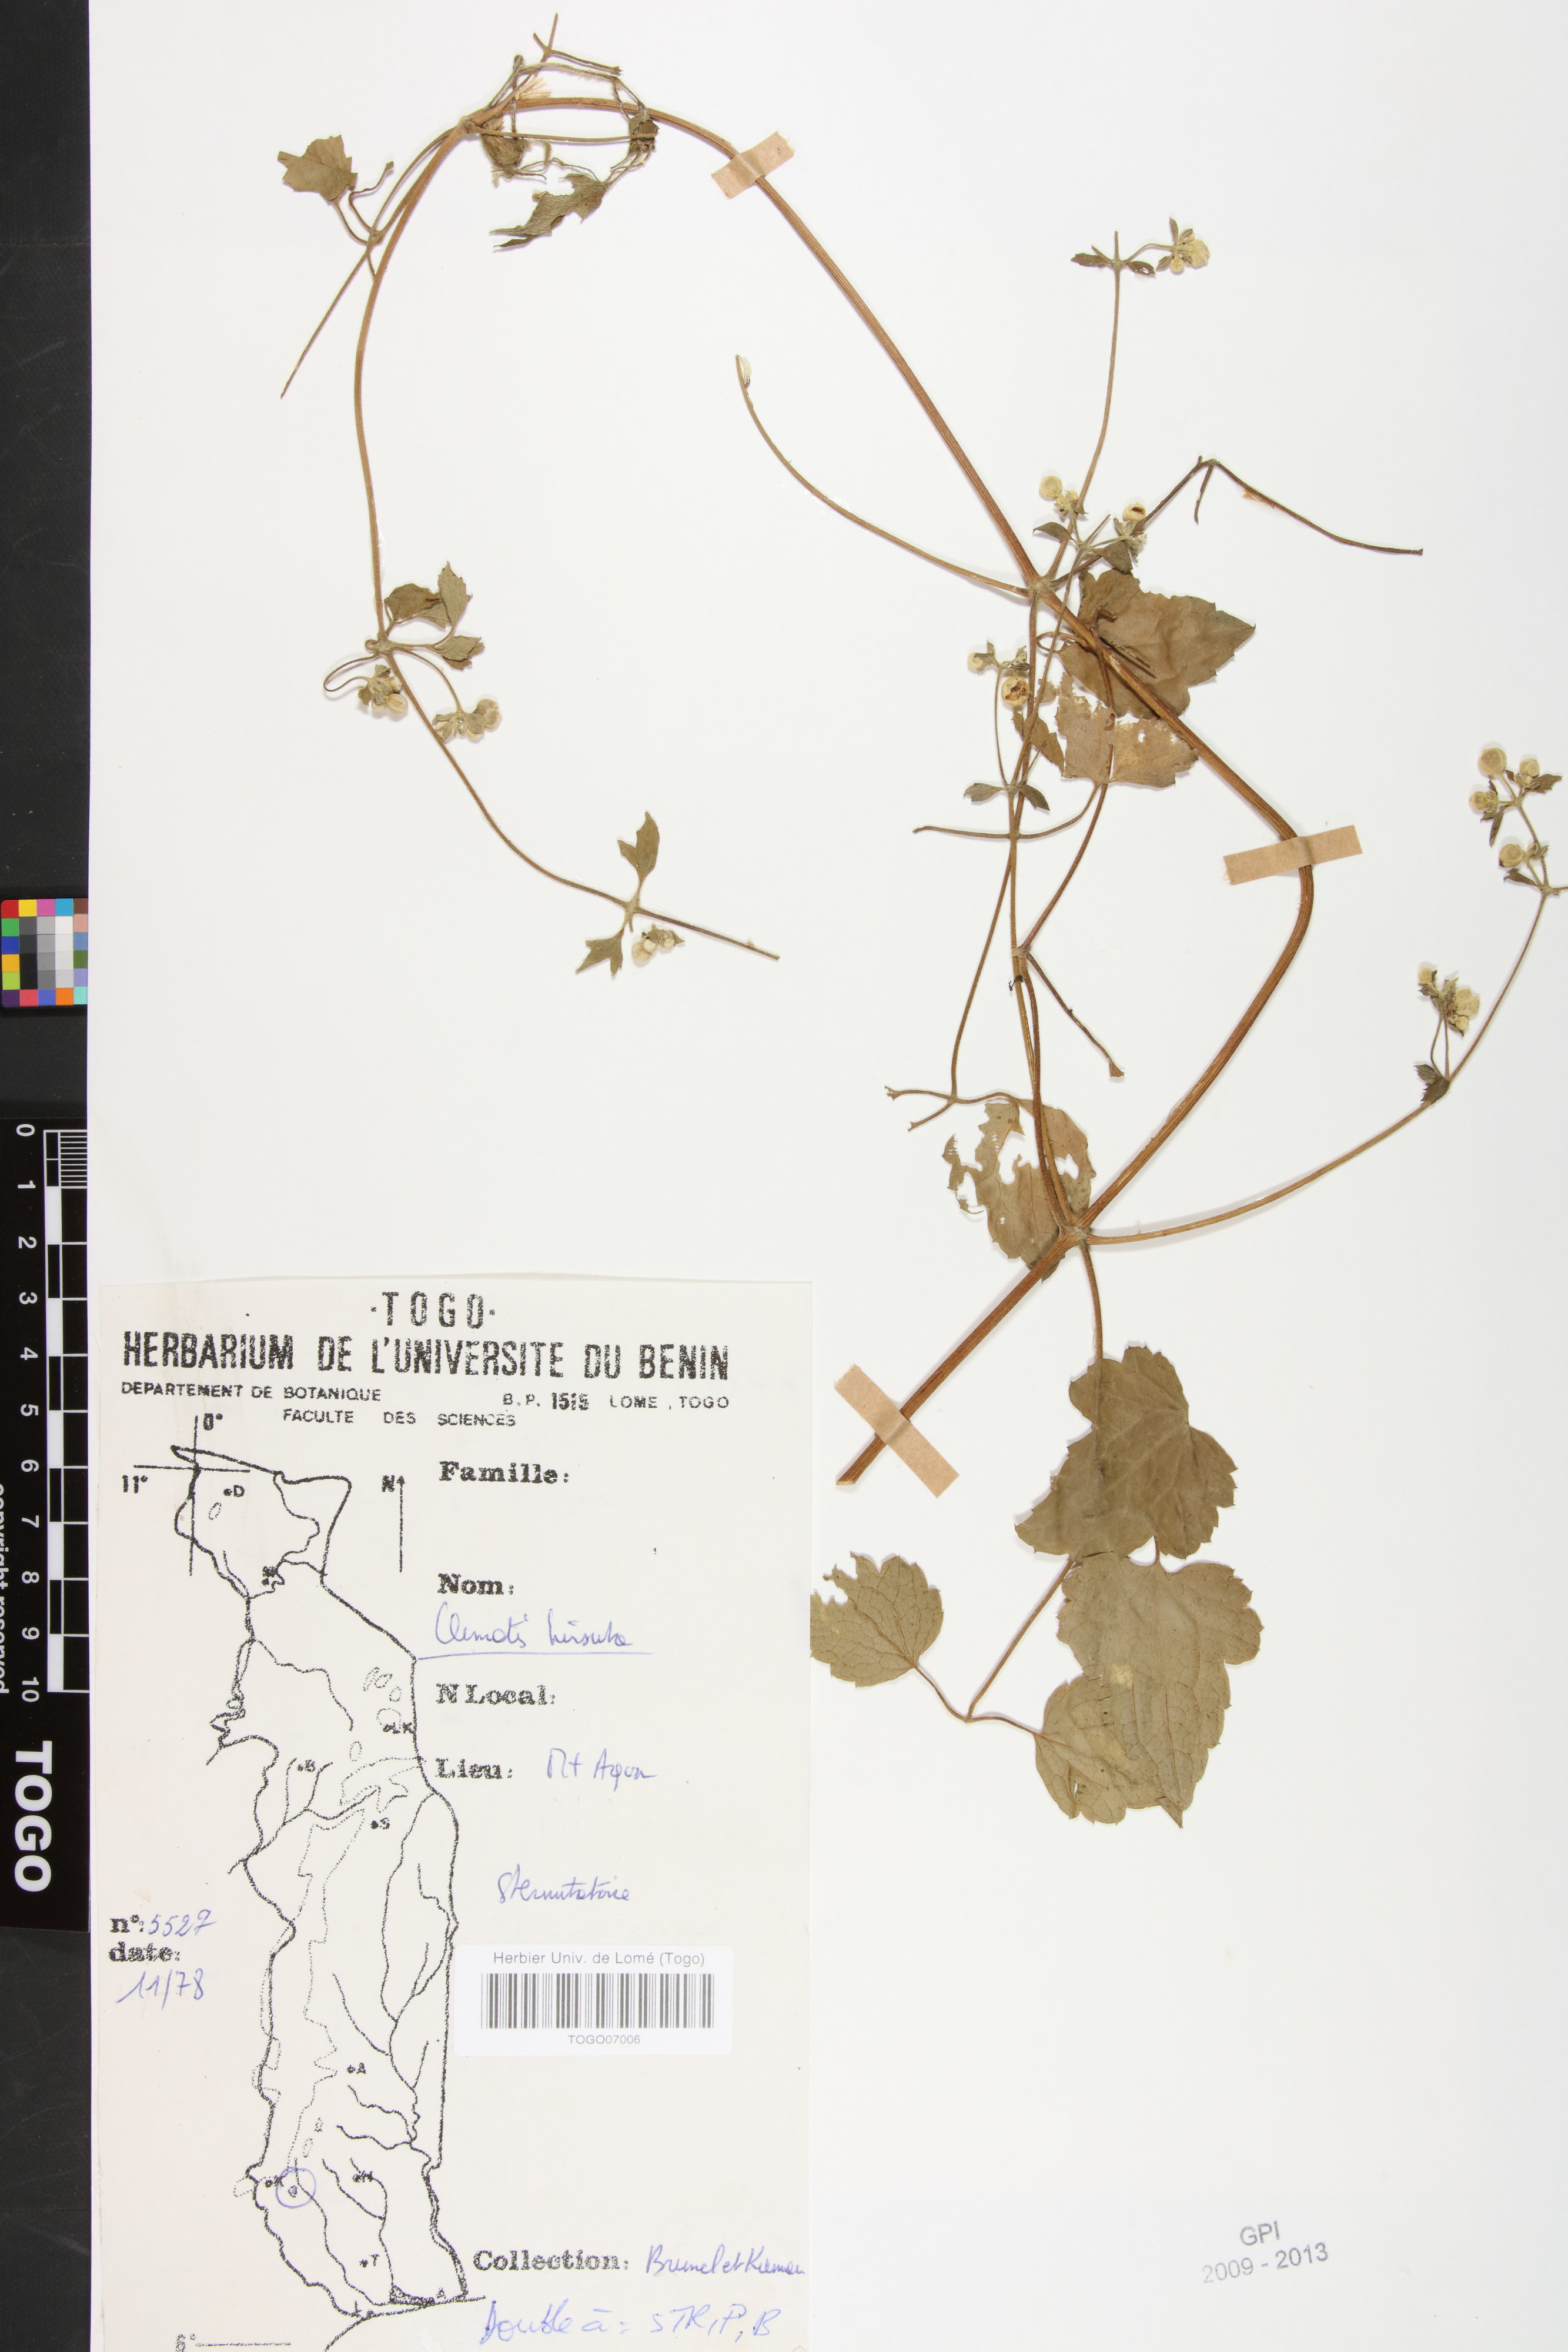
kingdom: Plantae
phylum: Tracheophyta
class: Magnoliopsida
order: Ranunculales
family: Ranunculaceae
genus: Clematis
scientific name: Clematis hirsuta
